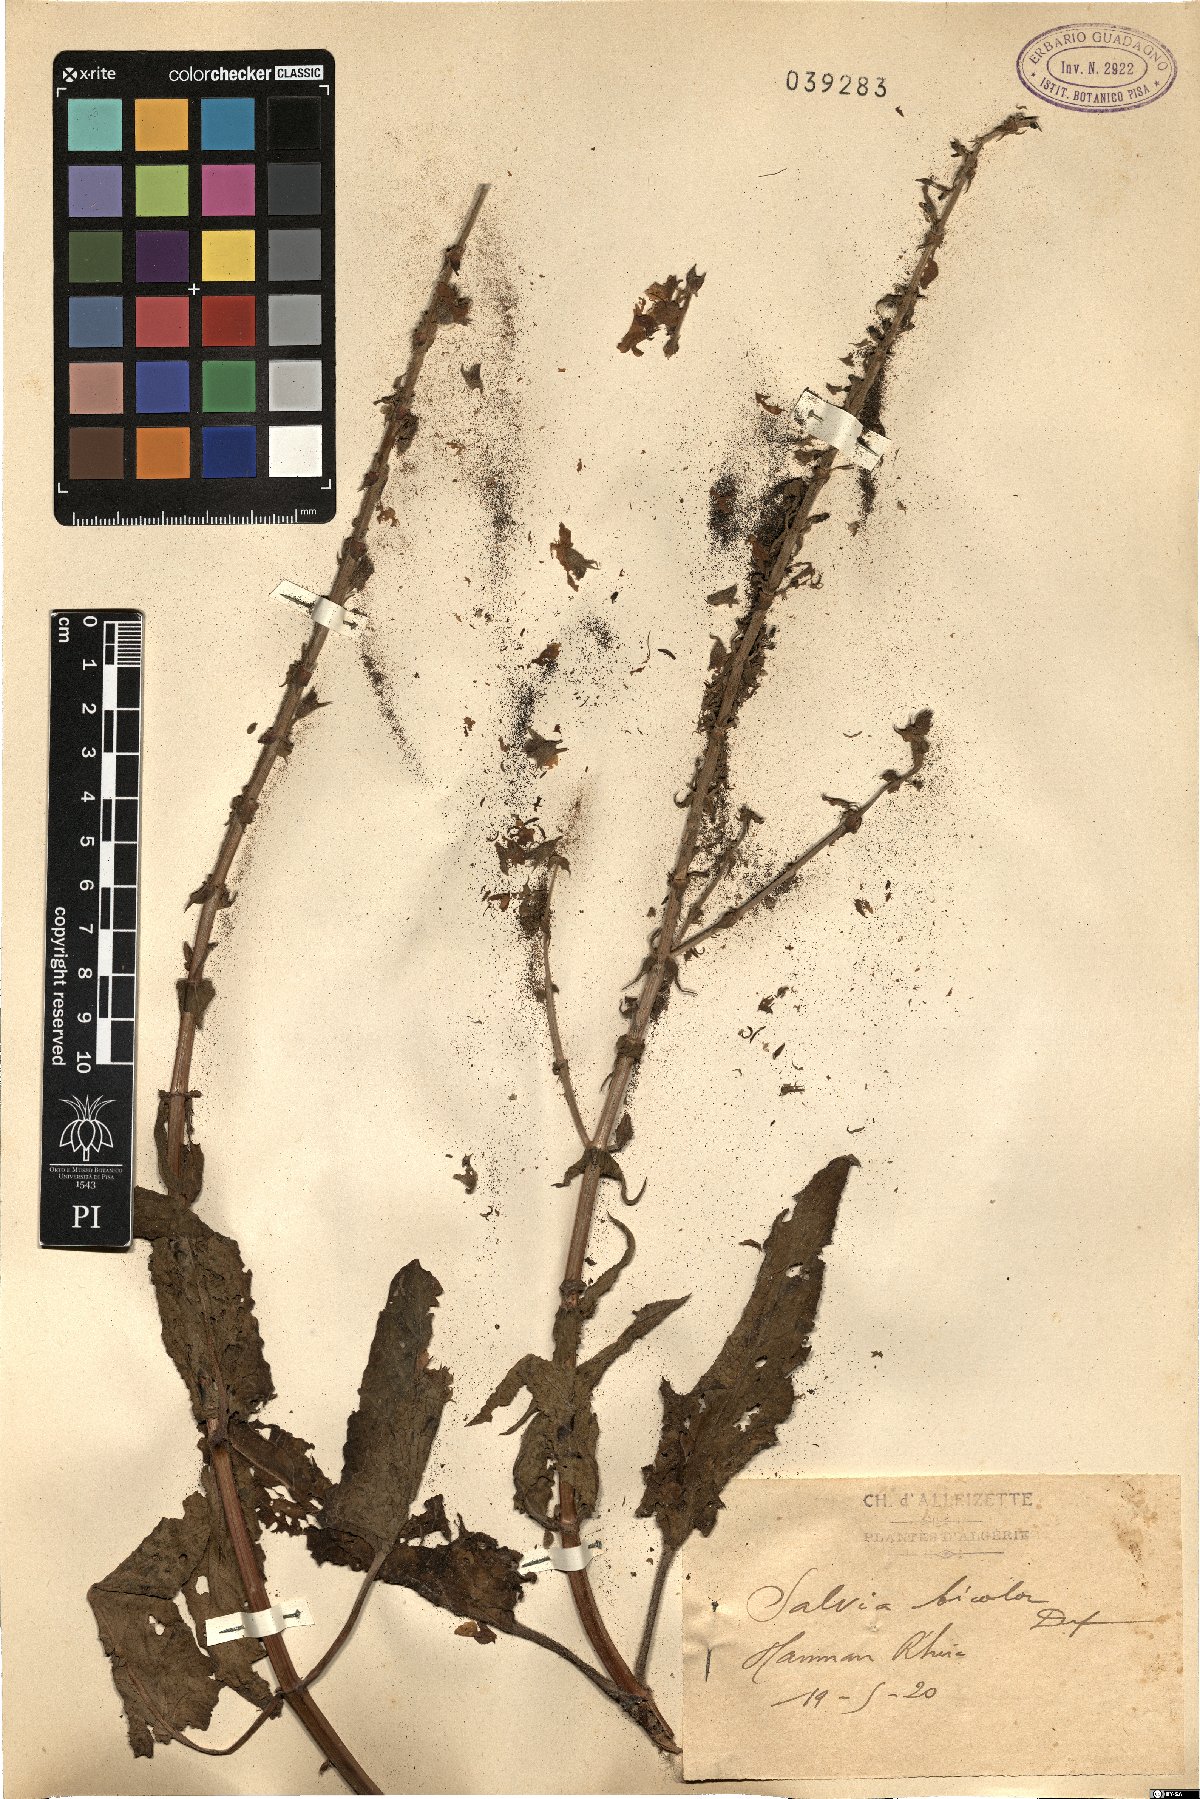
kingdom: Plantae
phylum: Tracheophyta
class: Magnoliopsida
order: Lamiales
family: Lamiaceae
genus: Salvia
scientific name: Salvia barrelieri
